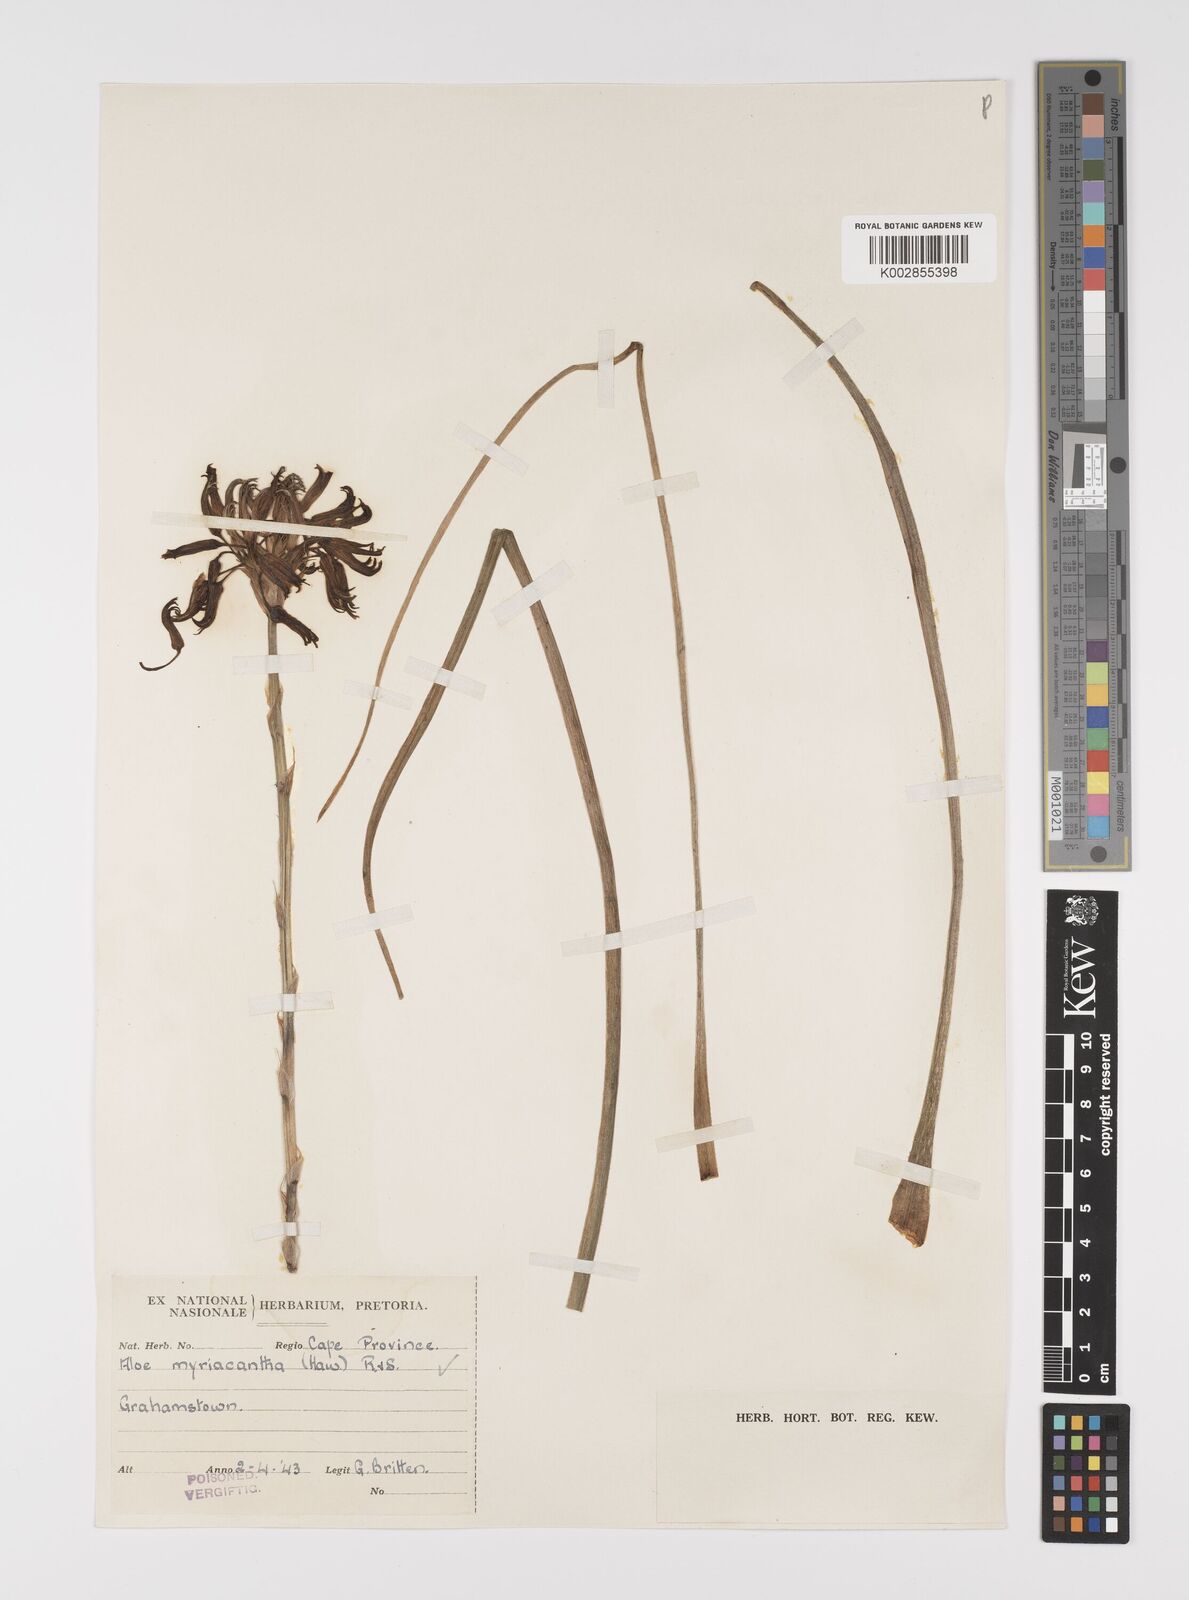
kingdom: Plantae
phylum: Tracheophyta
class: Liliopsida
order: Asparagales
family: Asphodelaceae
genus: Aloe
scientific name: Aloe myriacantha
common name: Grass aloe
